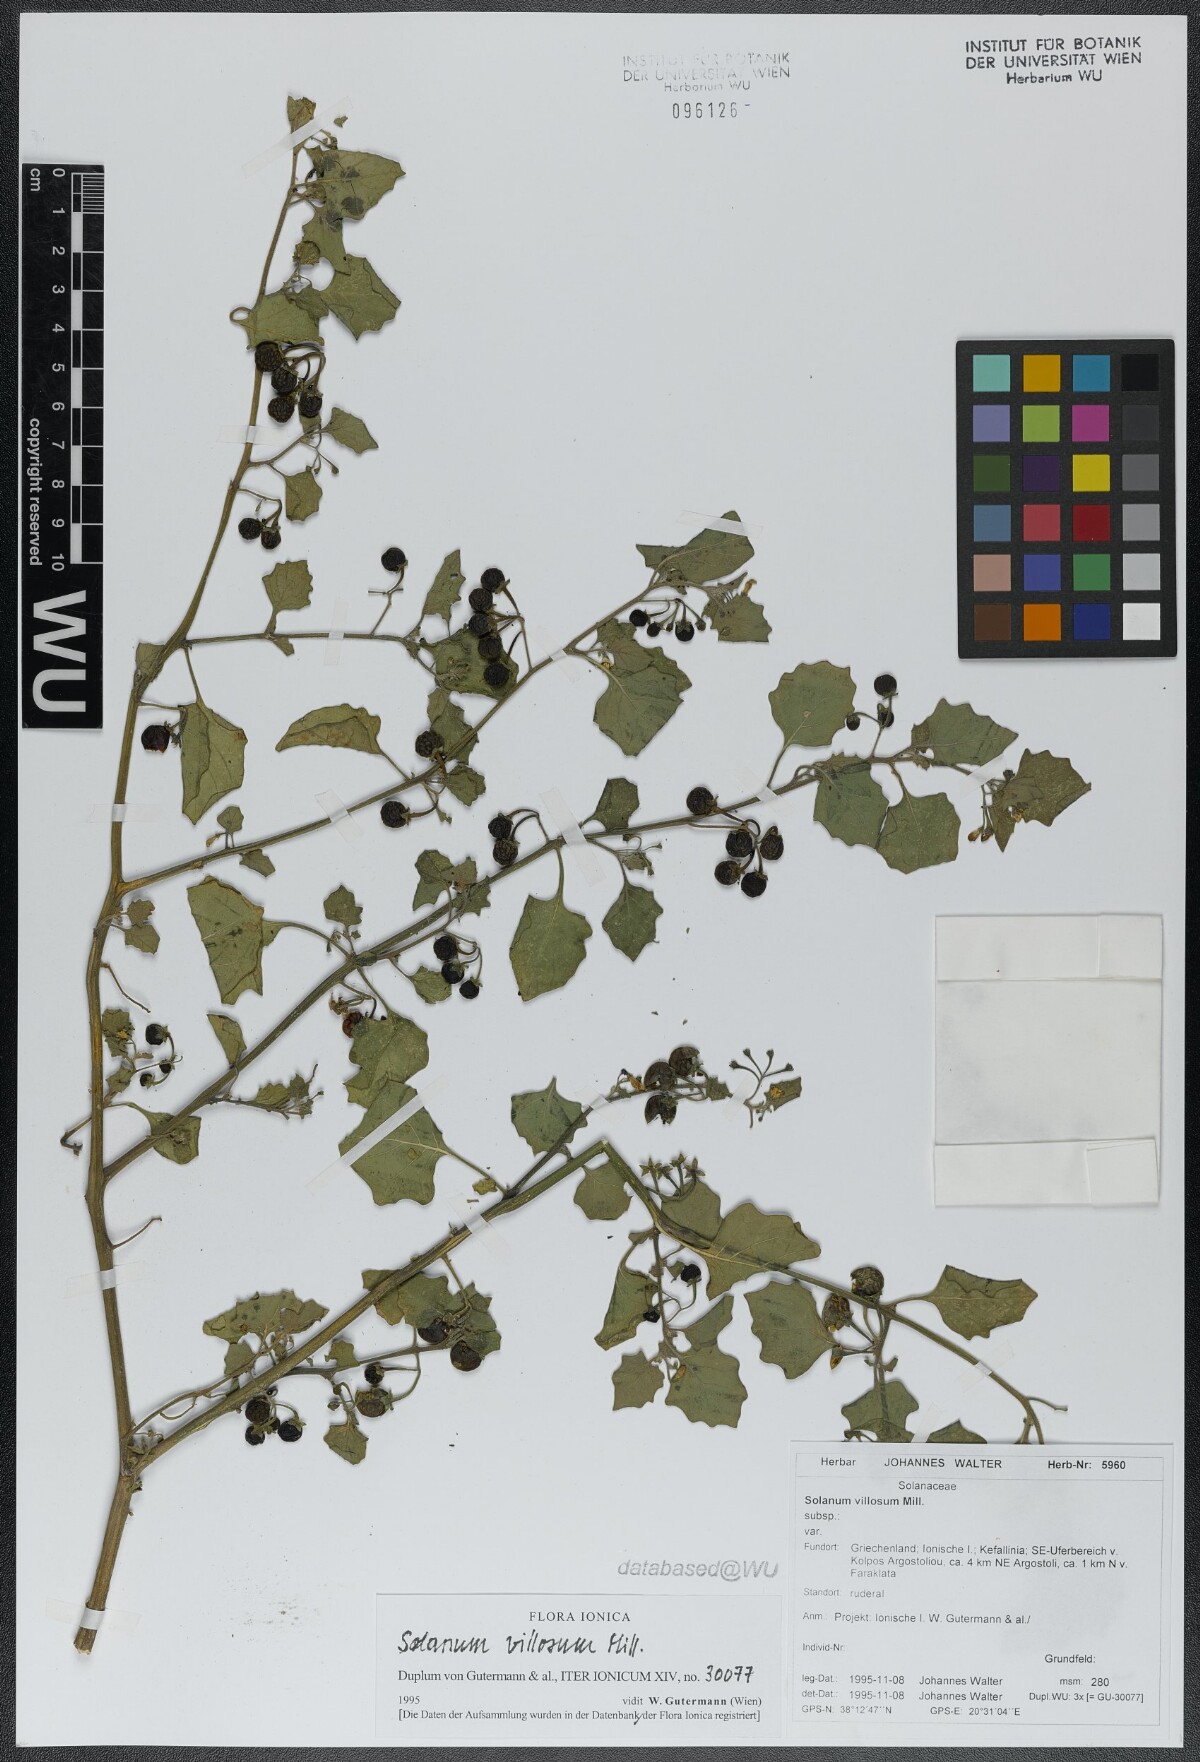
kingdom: Plantae
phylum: Tracheophyta
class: Magnoliopsida
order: Solanales
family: Solanaceae
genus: Solanum
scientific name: Solanum villosum
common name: Red nightshade
